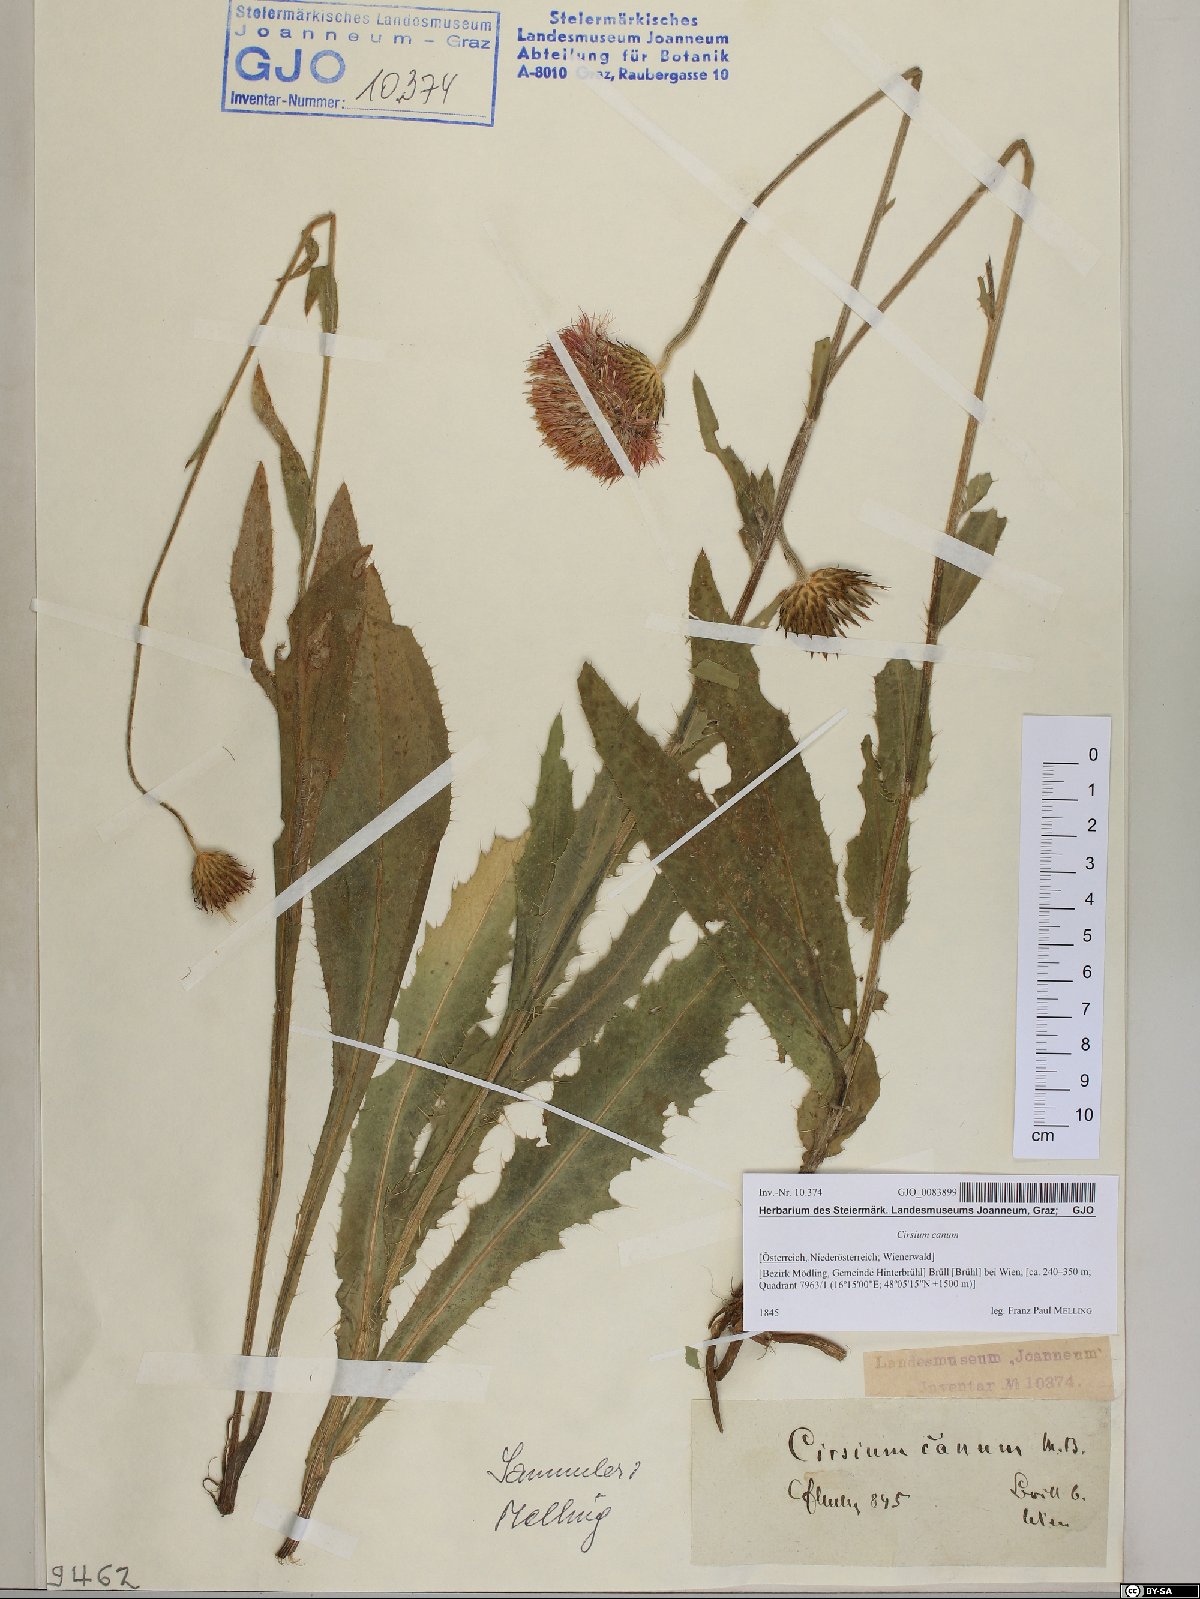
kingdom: Plantae
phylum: Tracheophyta
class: Magnoliopsida
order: Asterales
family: Asteraceae
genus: Cirsium
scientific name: Cirsium canum
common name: Queen anne's thistle
